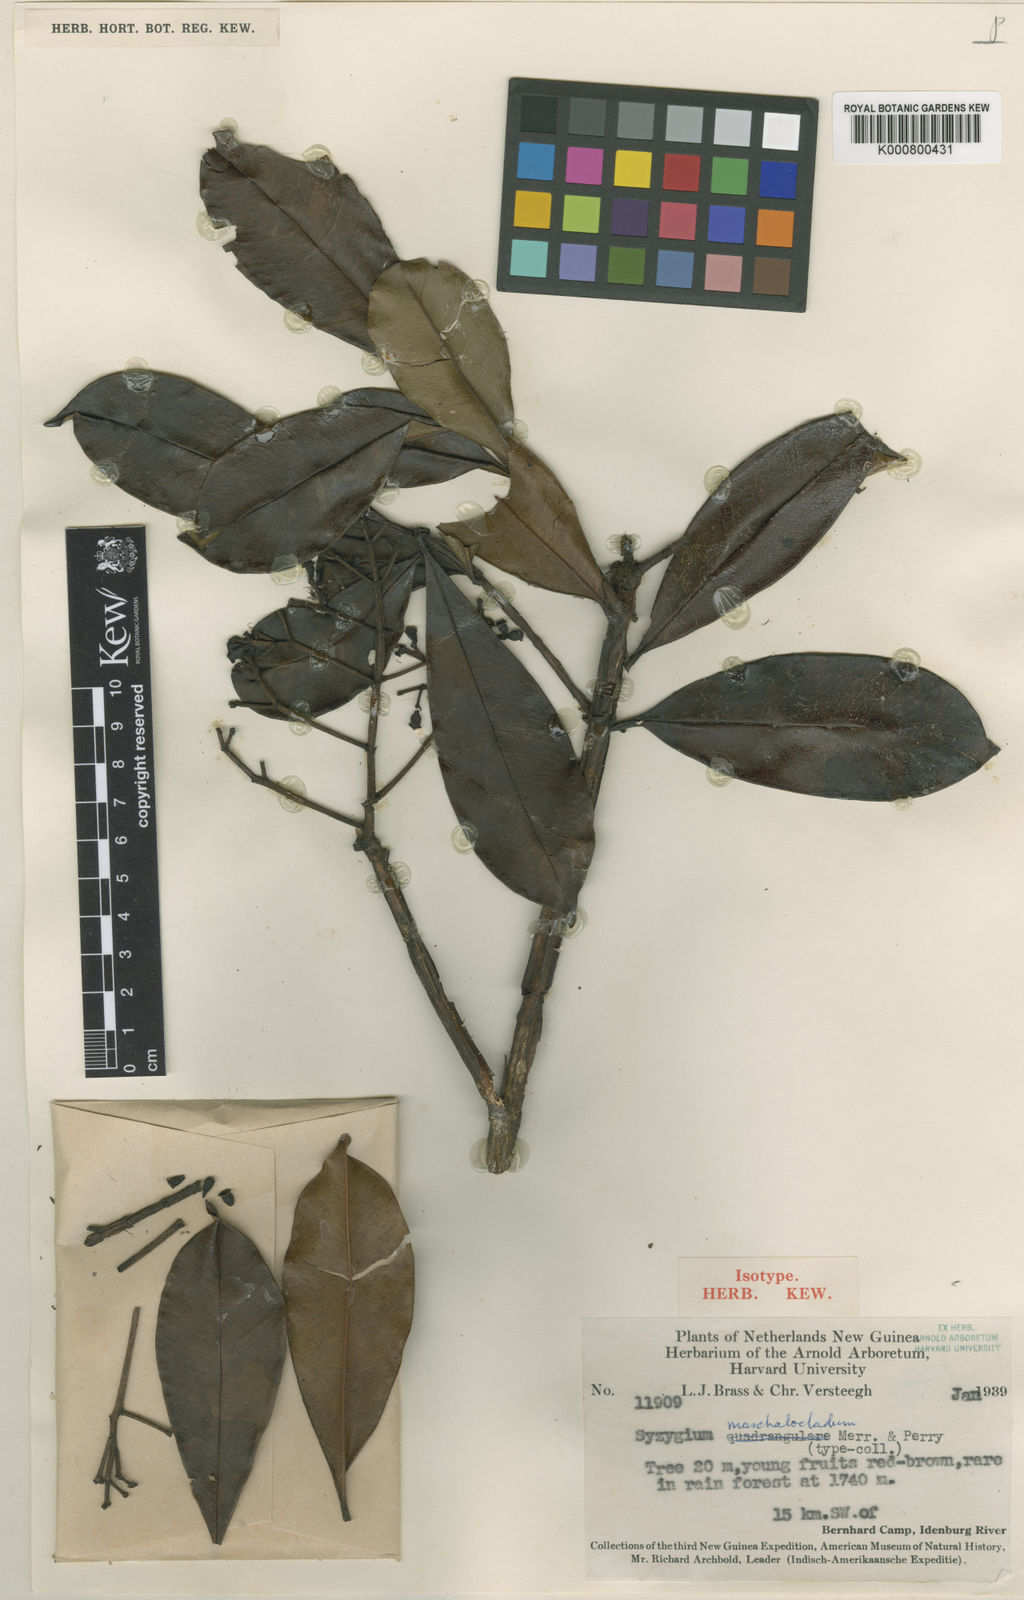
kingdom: Plantae
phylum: Tracheophyta
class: Magnoliopsida
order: Myrtales
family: Myrtaceae
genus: Syzygium
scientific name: Syzygium taeniatum
